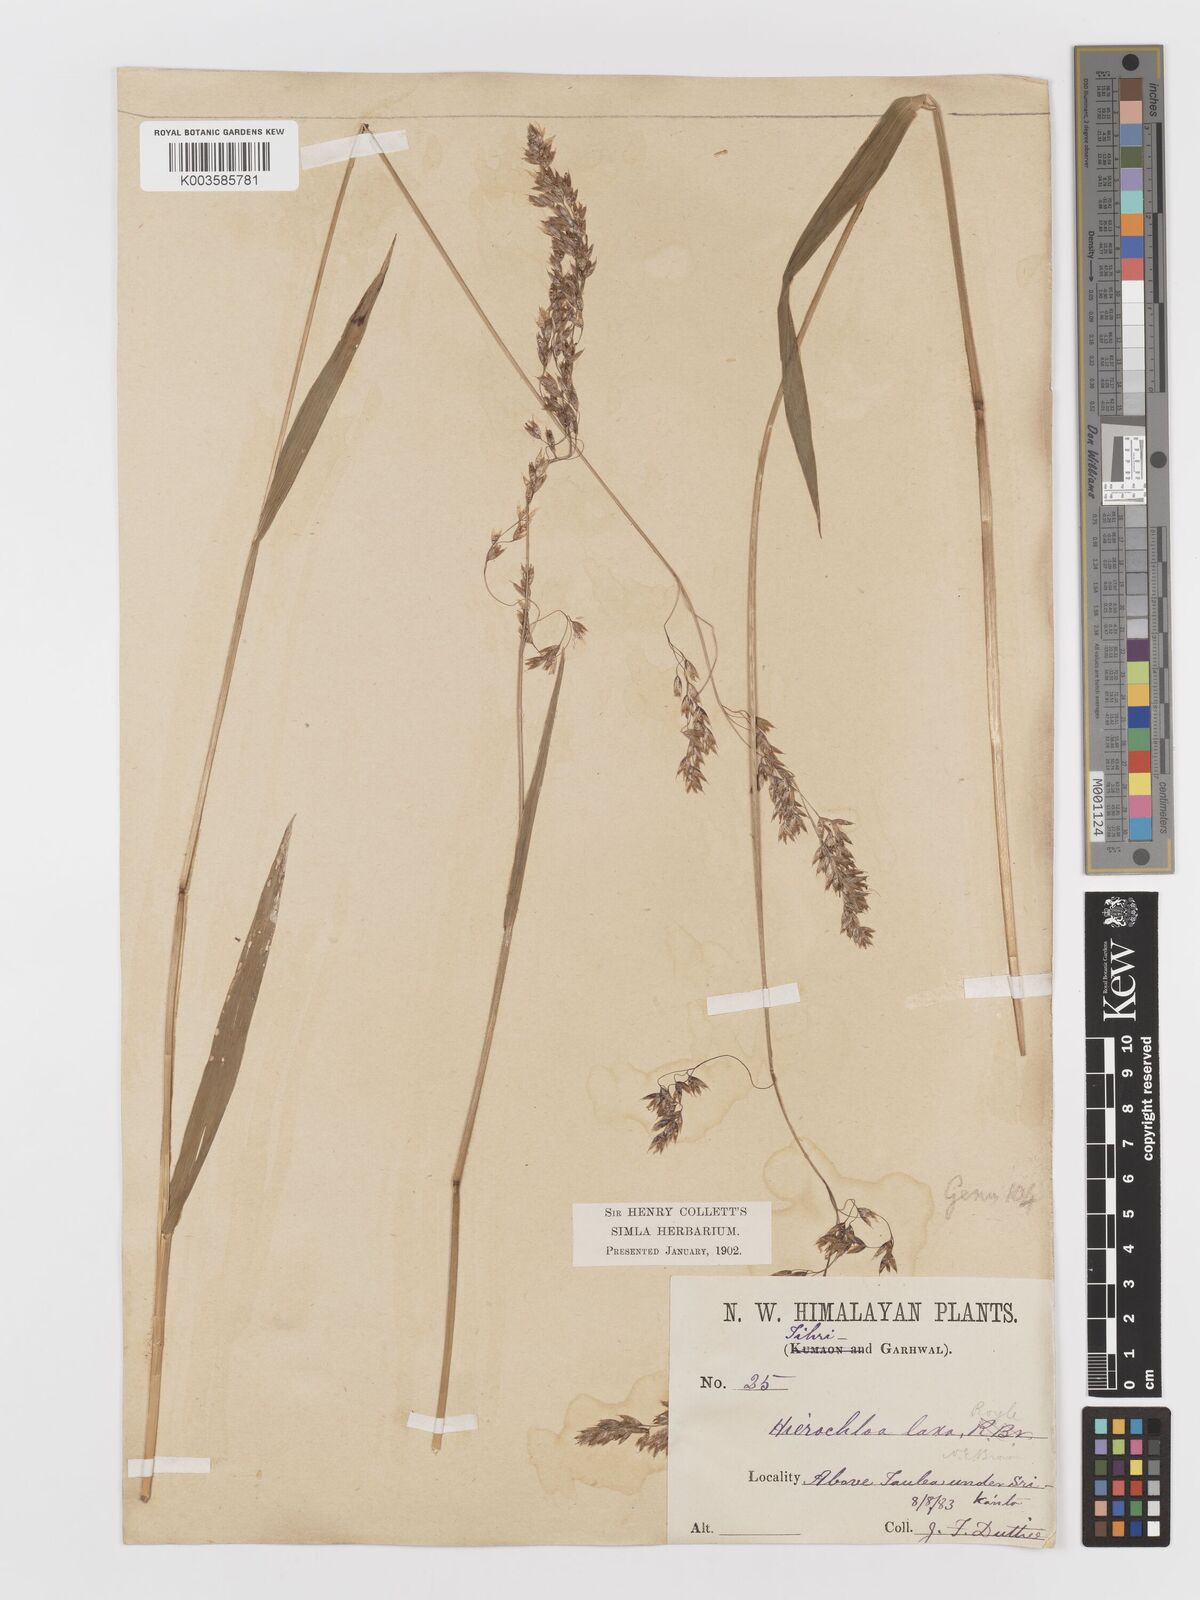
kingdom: Plantae
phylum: Tracheophyta
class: Liliopsida
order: Poales
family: Poaceae
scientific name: Poaceae
